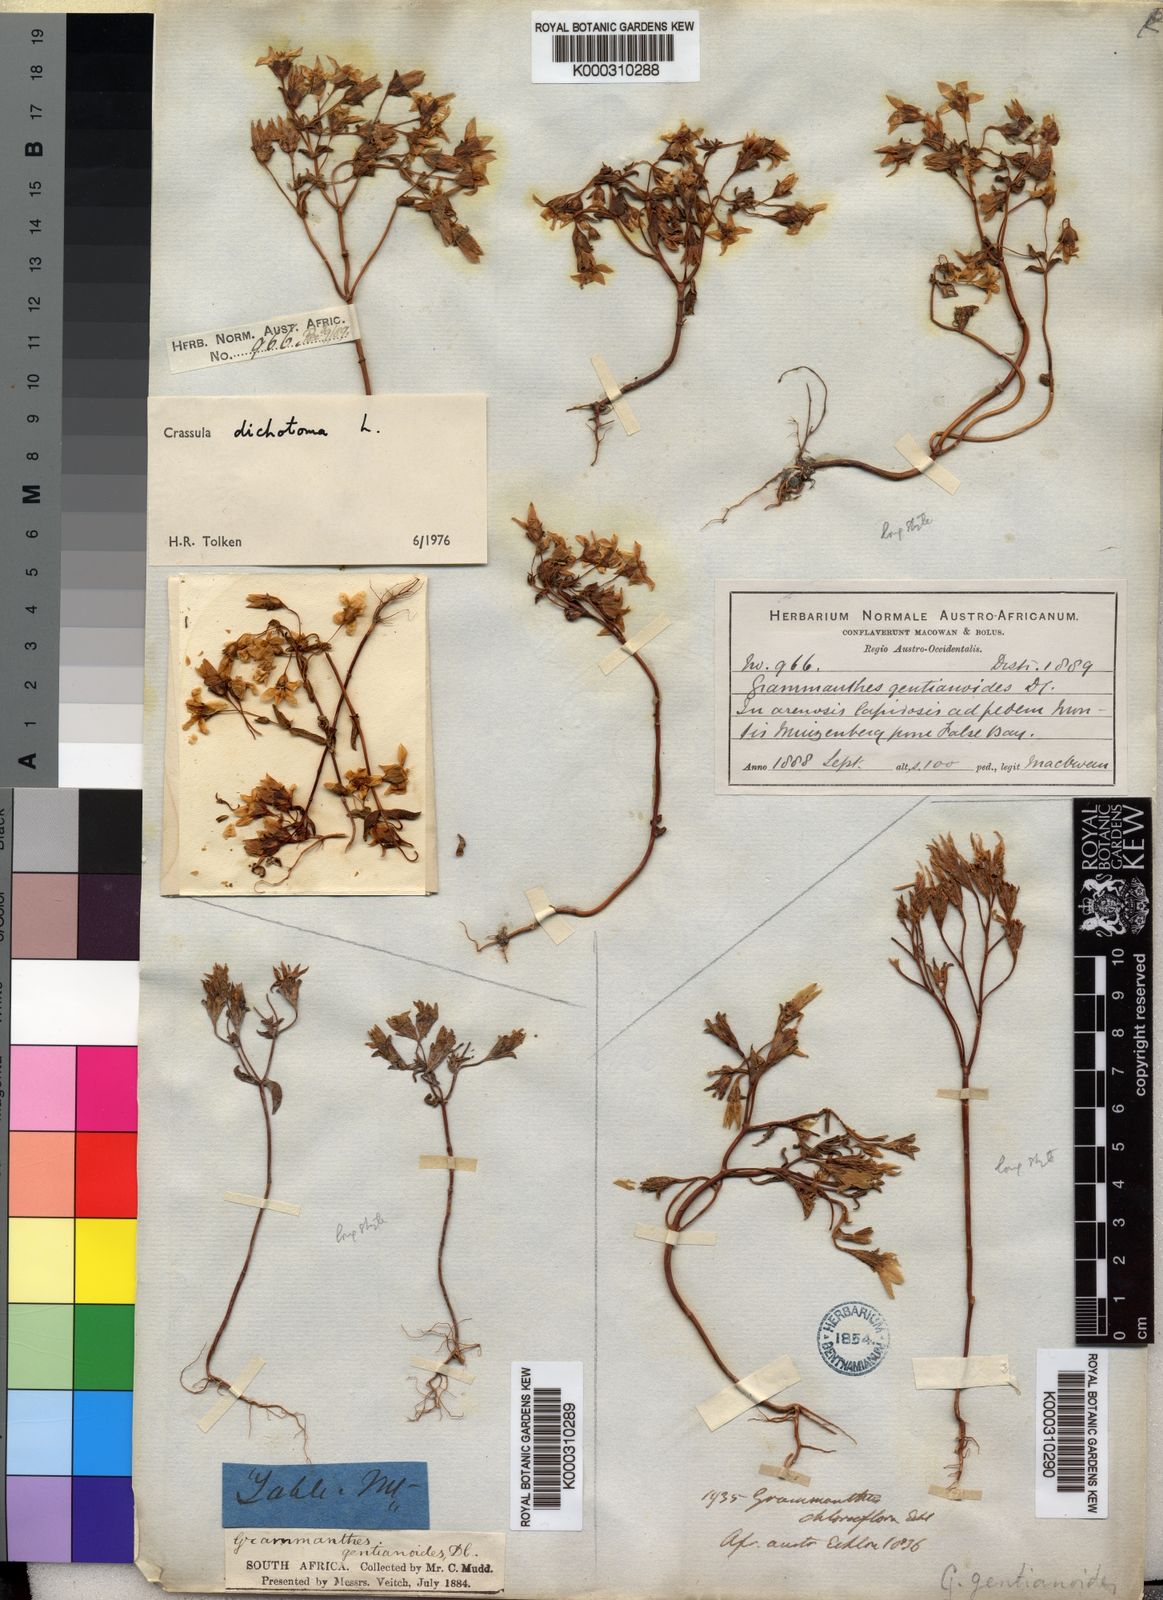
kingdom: Plantae
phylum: Tracheophyta
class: Magnoliopsida
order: Saxifragales
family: Crassulaceae
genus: Crassula
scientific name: Crassula dichotoma
